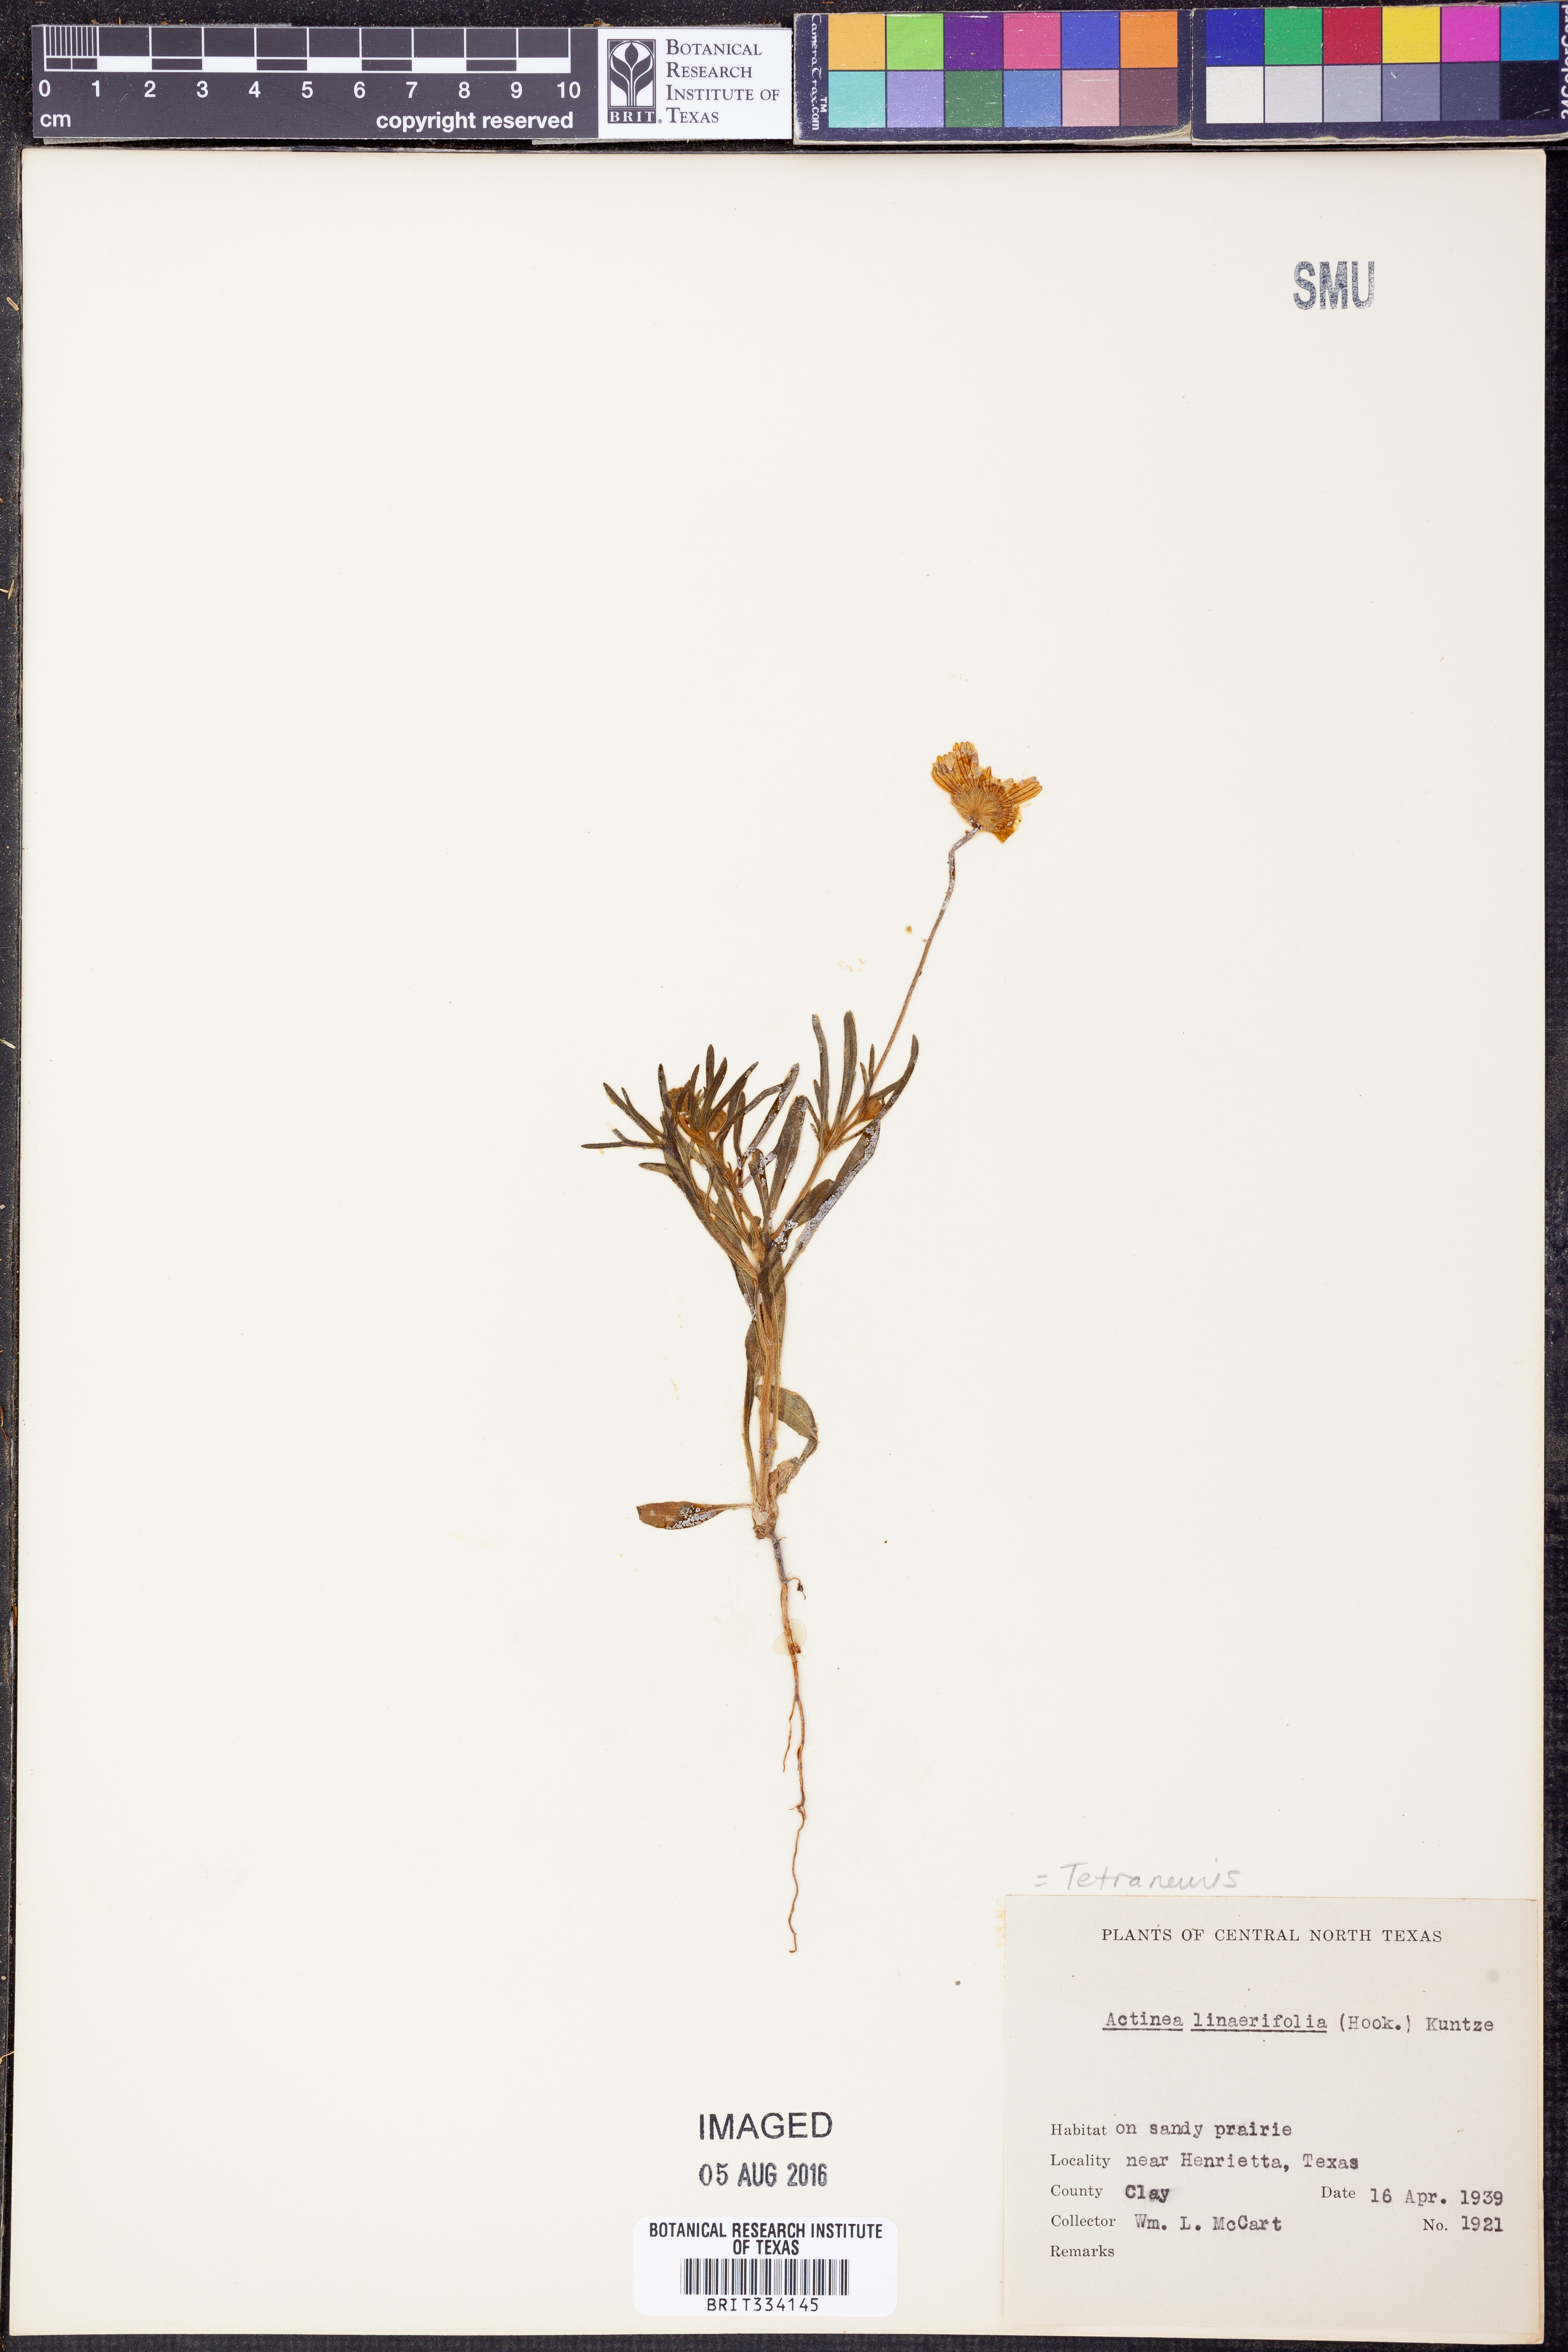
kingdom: Plantae
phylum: Tracheophyta
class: Magnoliopsida
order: Asterales
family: Asteraceae
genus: Tetraneuris
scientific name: Tetraneuris linearifolia
